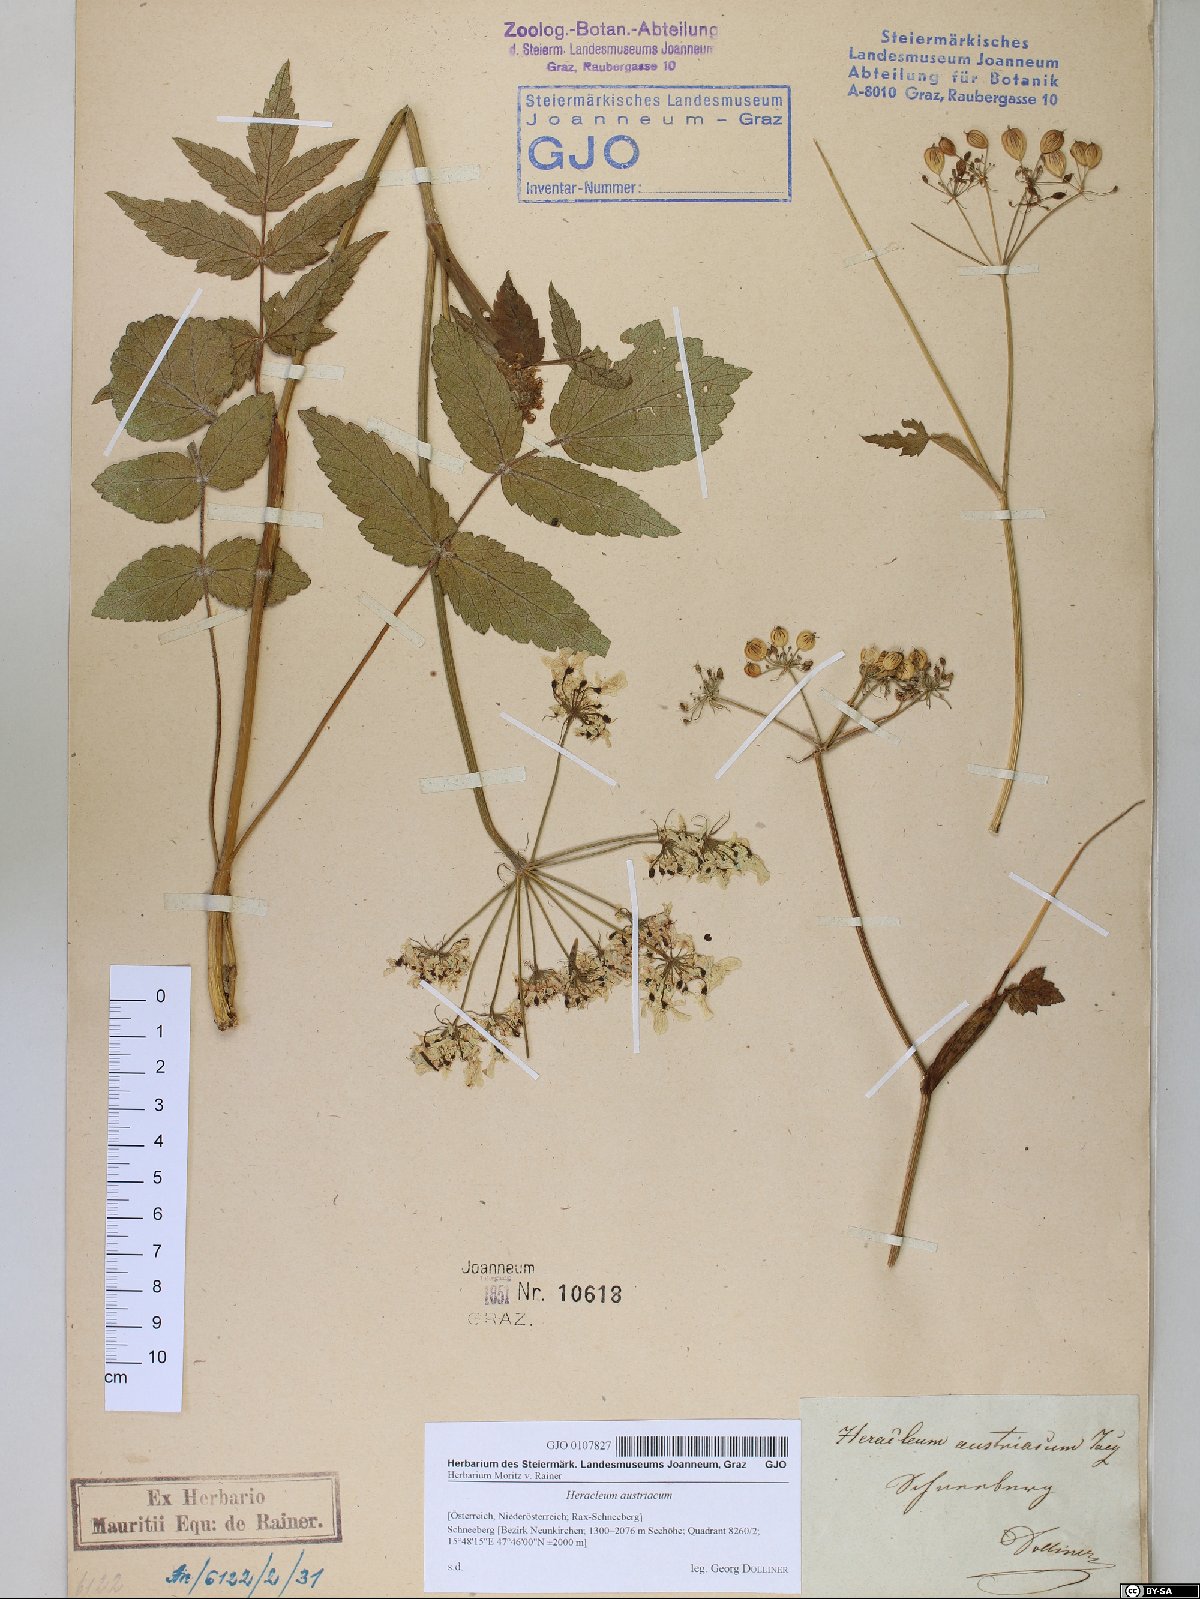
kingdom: Plantae
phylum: Tracheophyta
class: Magnoliopsida
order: Apiales
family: Apiaceae
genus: Heracleum
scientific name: Heracleum austriacum
